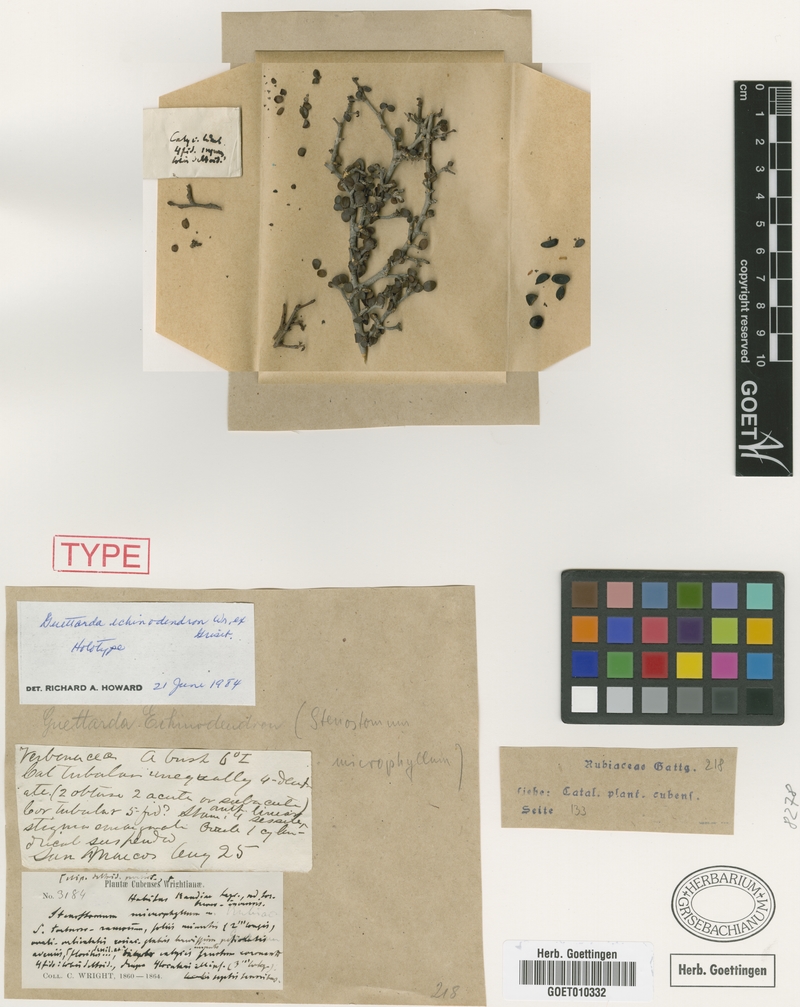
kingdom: Plantae
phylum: Tracheophyta
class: Magnoliopsida
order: Gentianales
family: Rubiaceae
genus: Ottoschmidtia
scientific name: Ottoschmidtia microphylla
